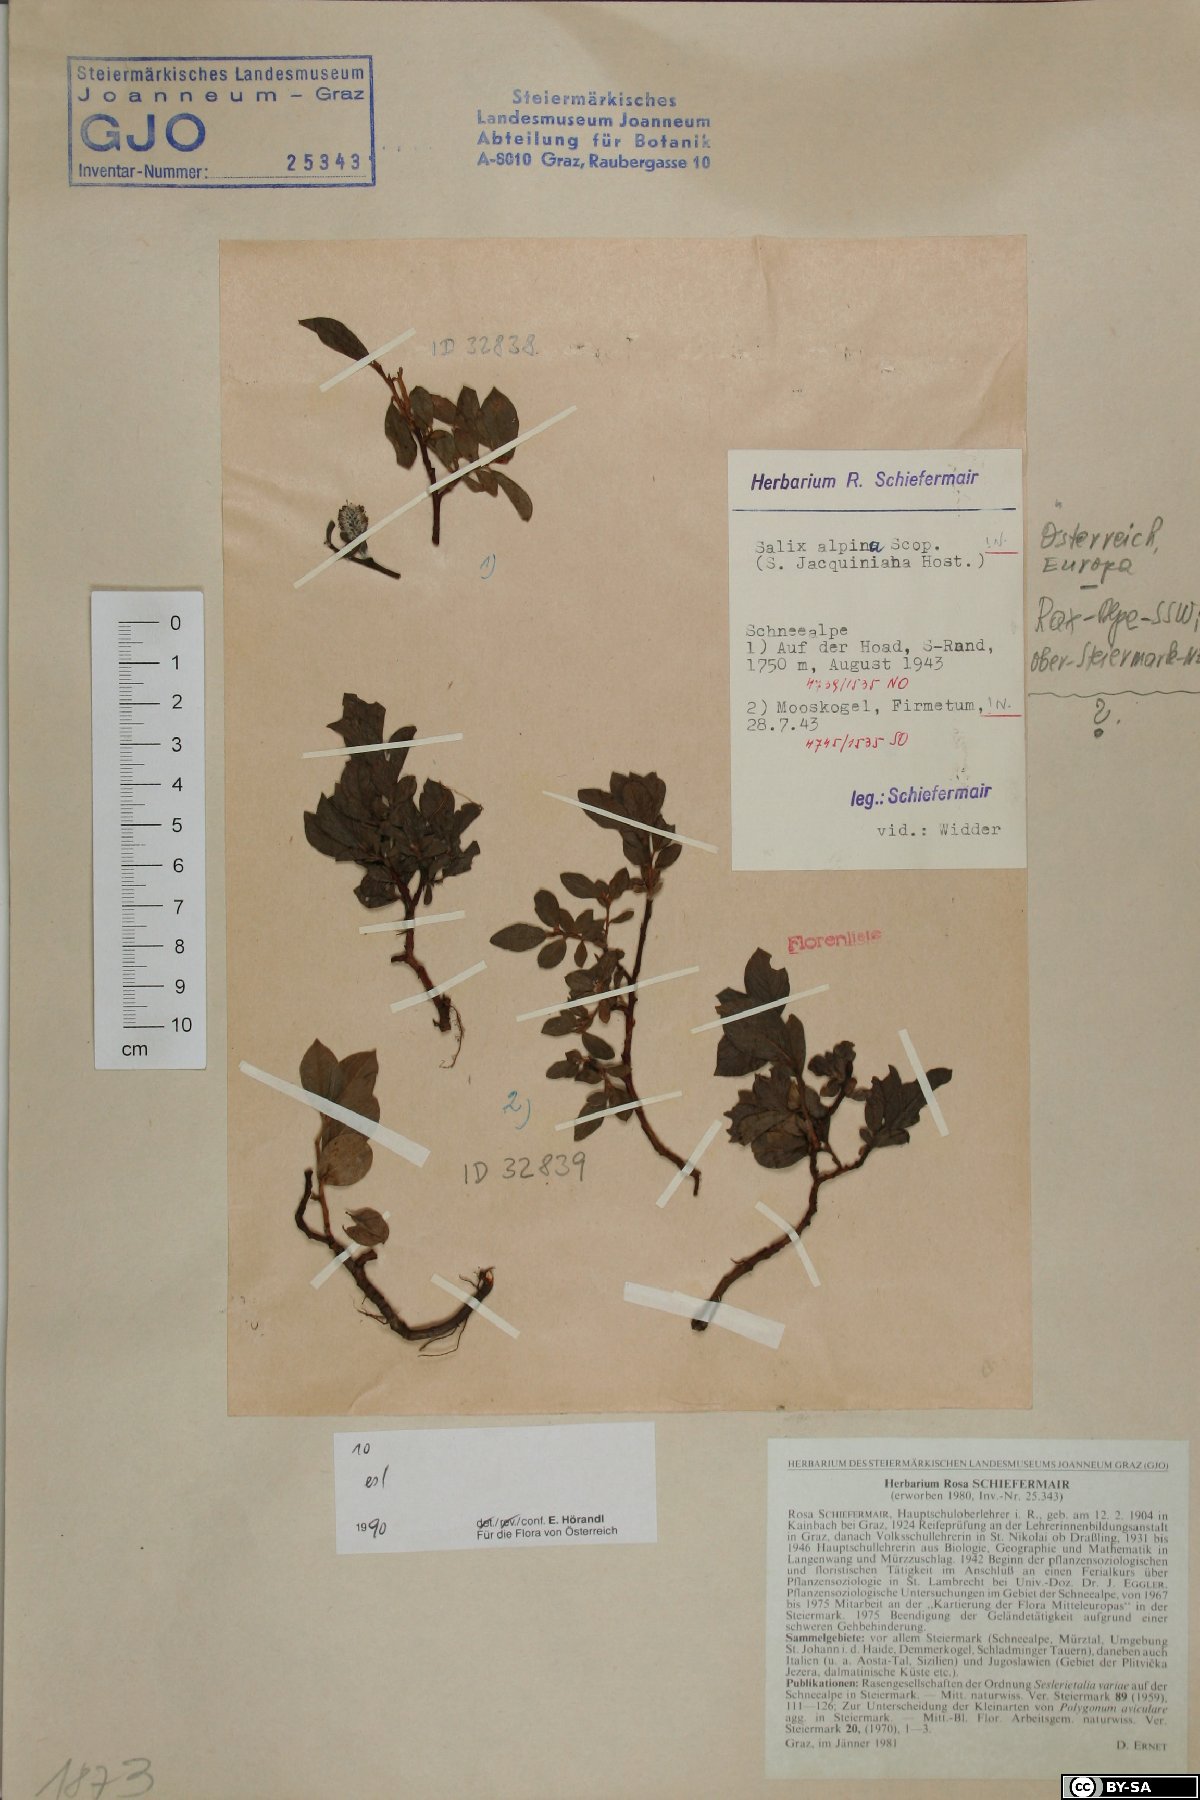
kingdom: Plantae
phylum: Tracheophyta
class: Magnoliopsida
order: Malpighiales
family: Salicaceae
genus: Salix
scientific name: Salix alpina
